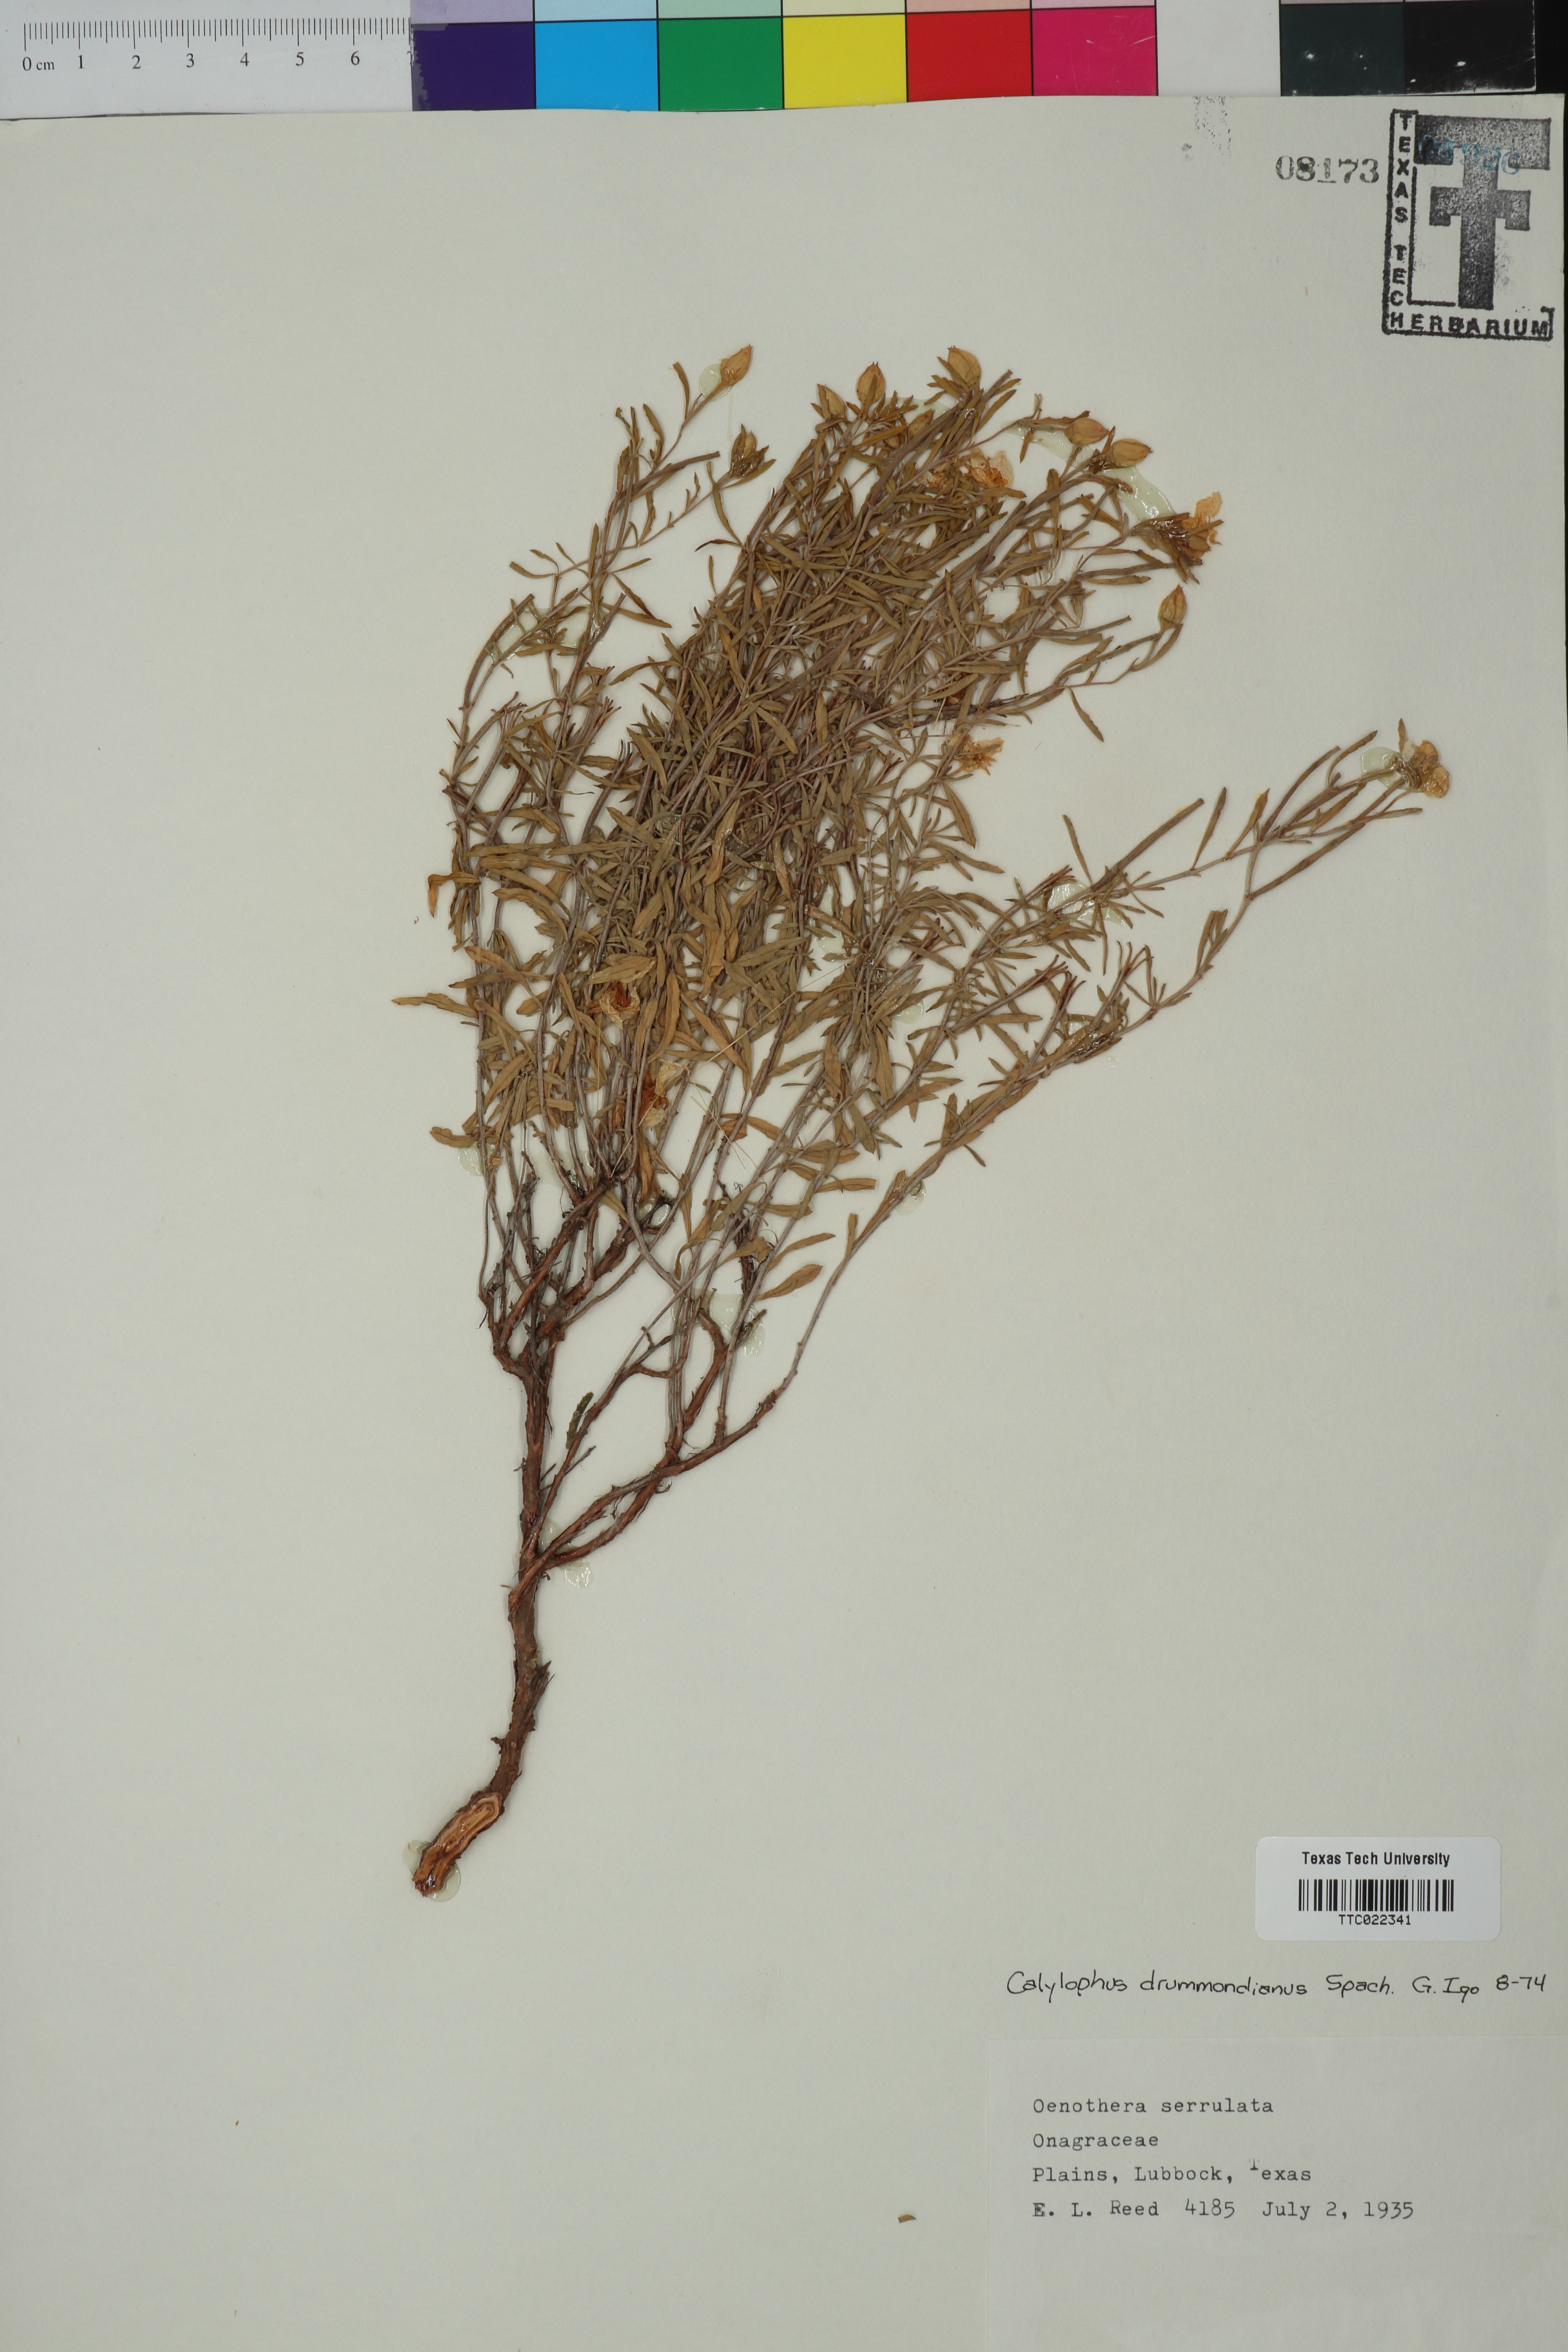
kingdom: Plantae
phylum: Tracheophyta
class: Magnoliopsida
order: Myrtales
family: Onagraceae
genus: Oenothera
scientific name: Oenothera serrulata
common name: Half-shrub calylophus
